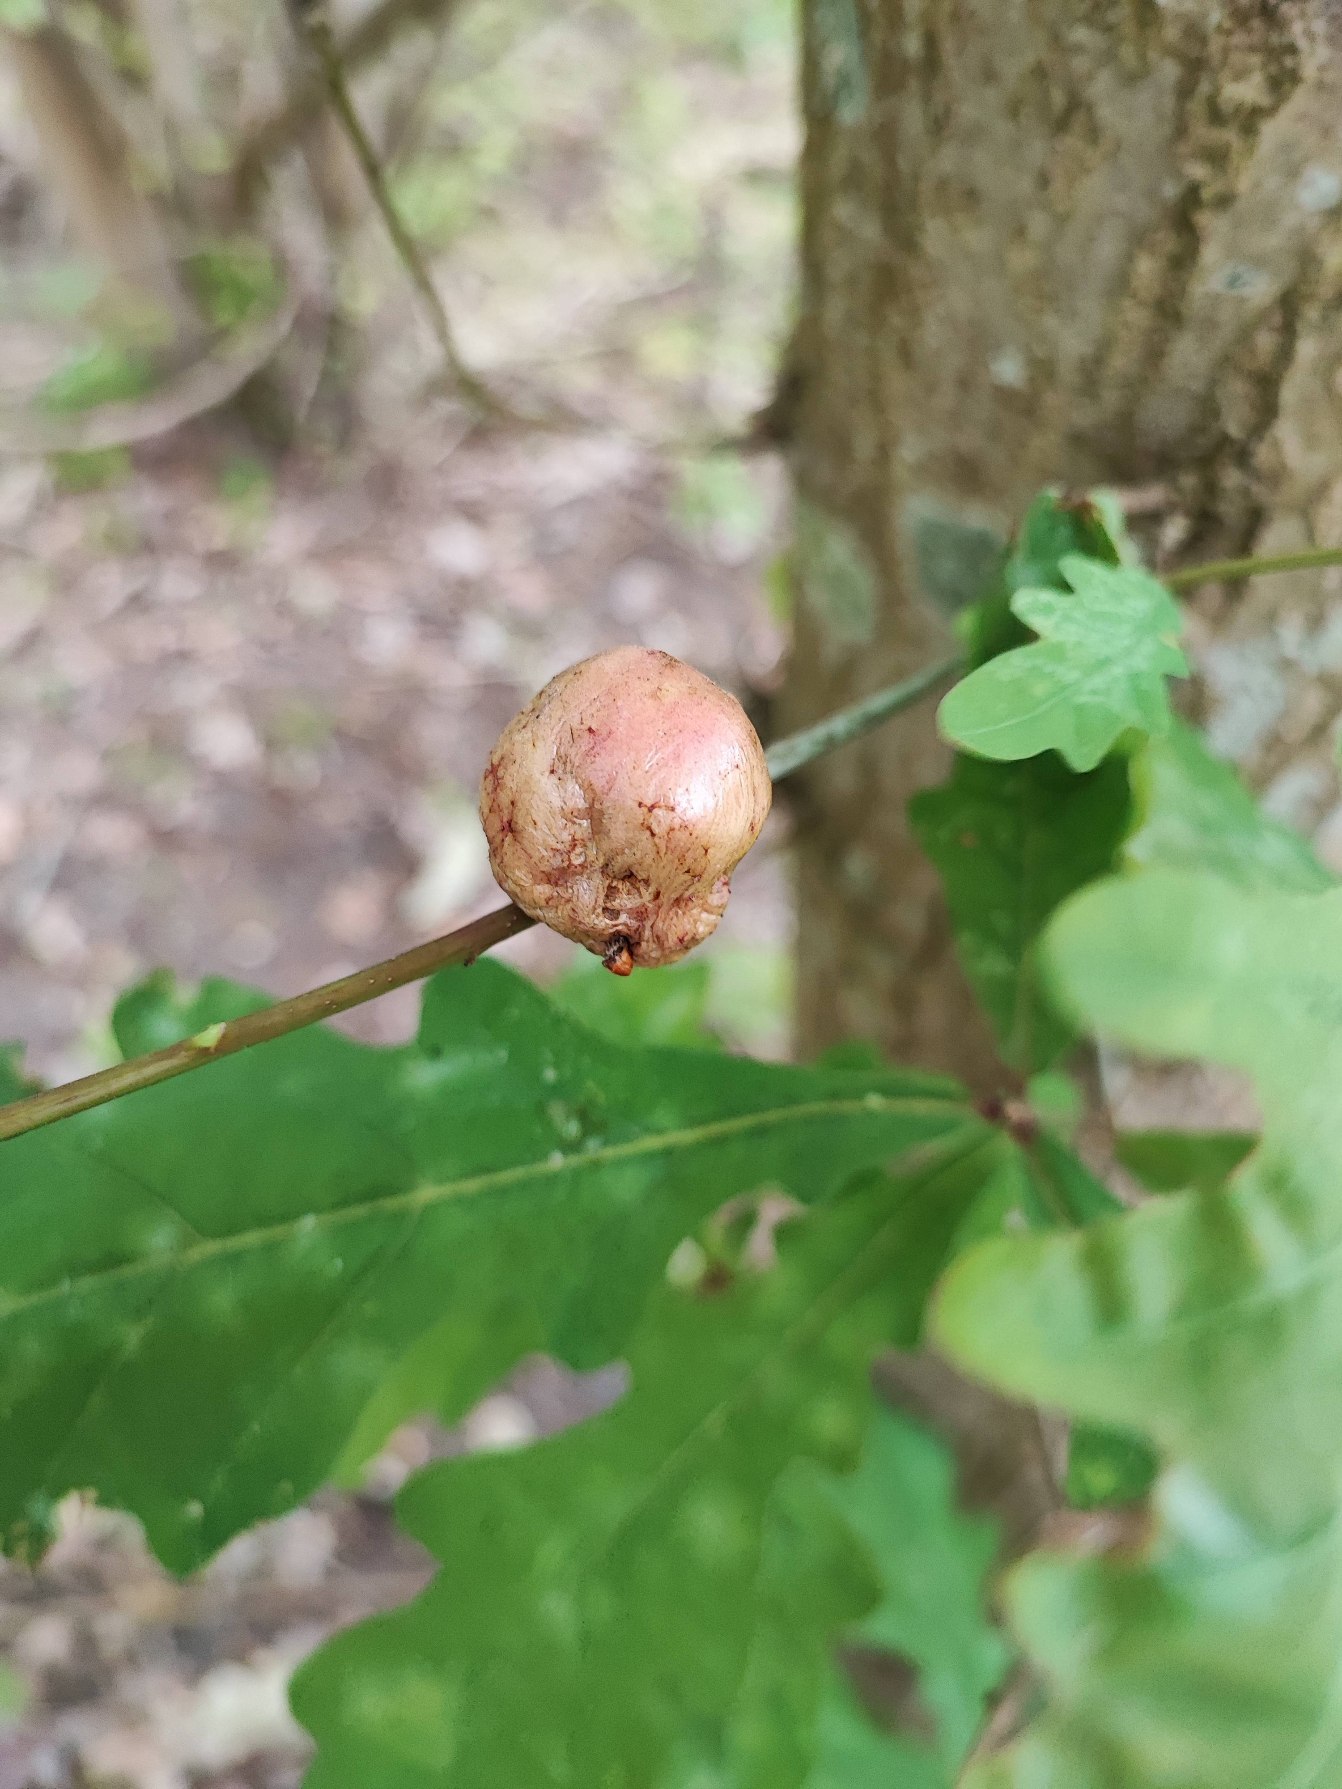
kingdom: Animalia
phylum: Arthropoda
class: Insecta
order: Hymenoptera
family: Cynipidae
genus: Biorhiza
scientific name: Biorhiza pallida
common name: Ege-kartoffelgalhveps
